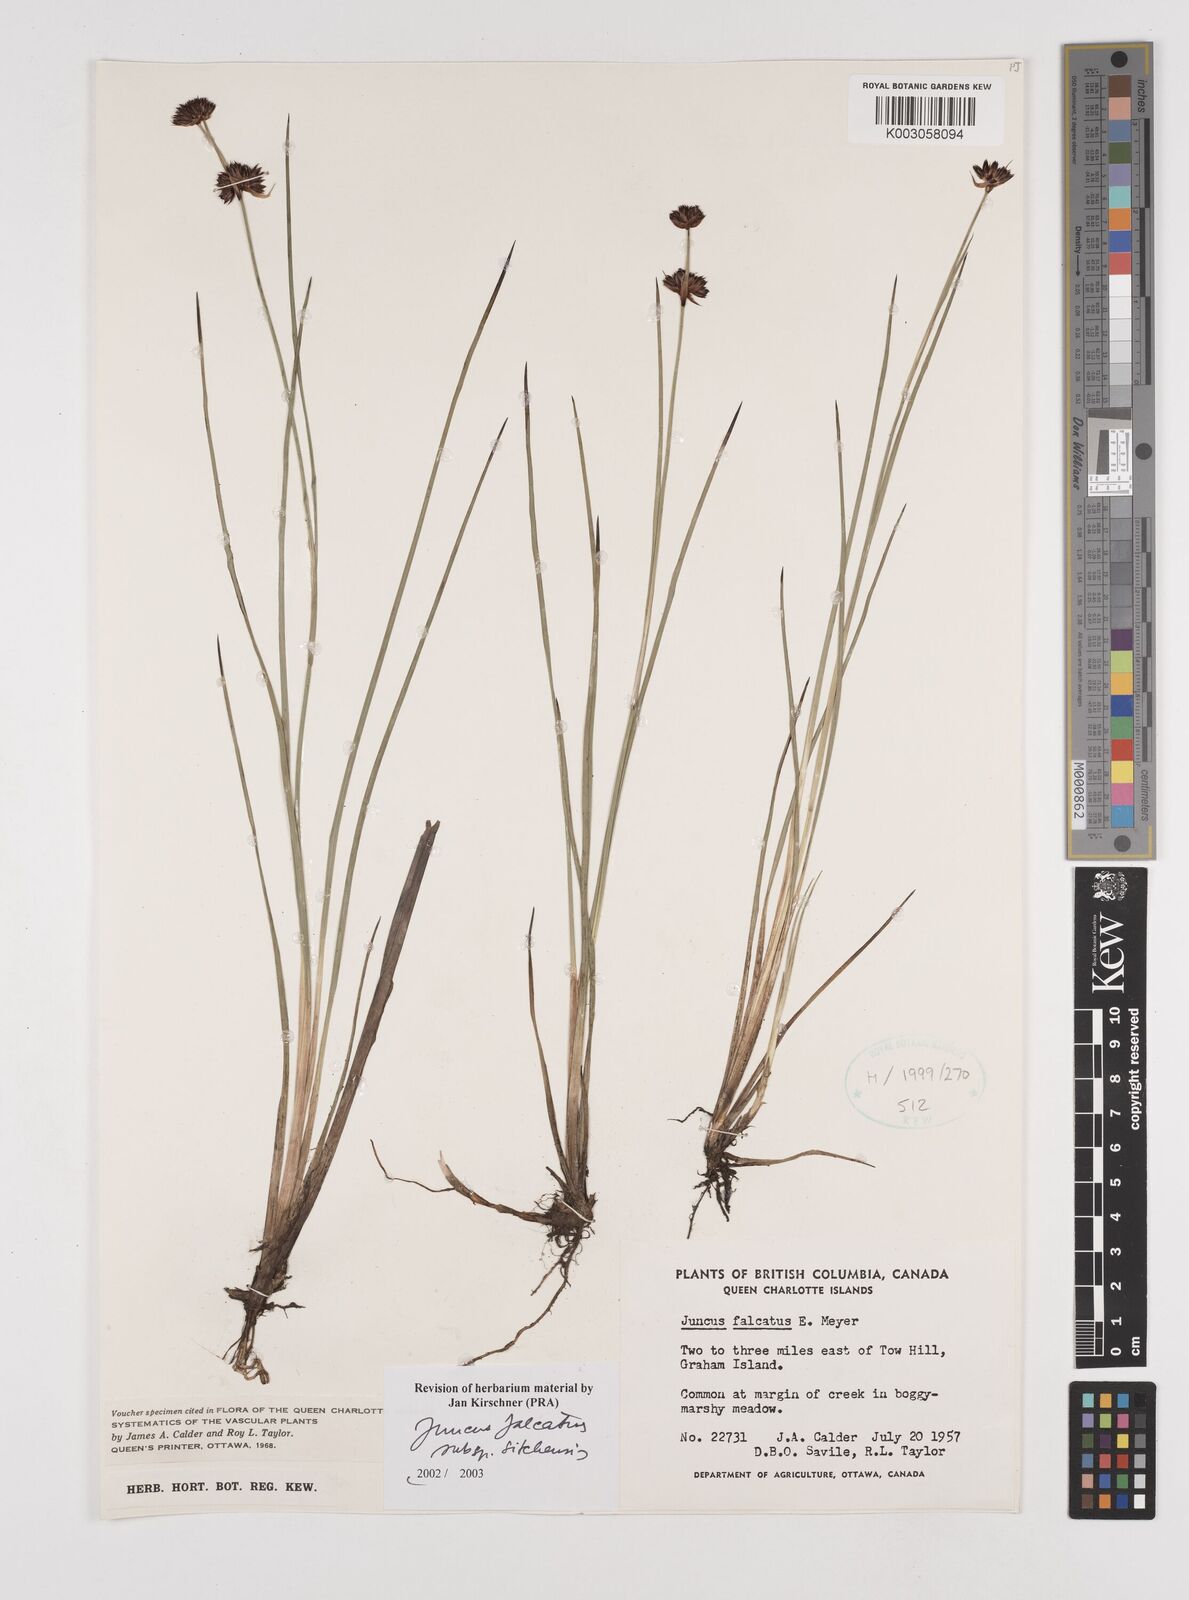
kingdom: Plantae
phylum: Tracheophyta
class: Liliopsida
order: Poales
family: Juncaceae
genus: Juncus
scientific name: Juncus falcatus
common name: Sickle-leaf rush
